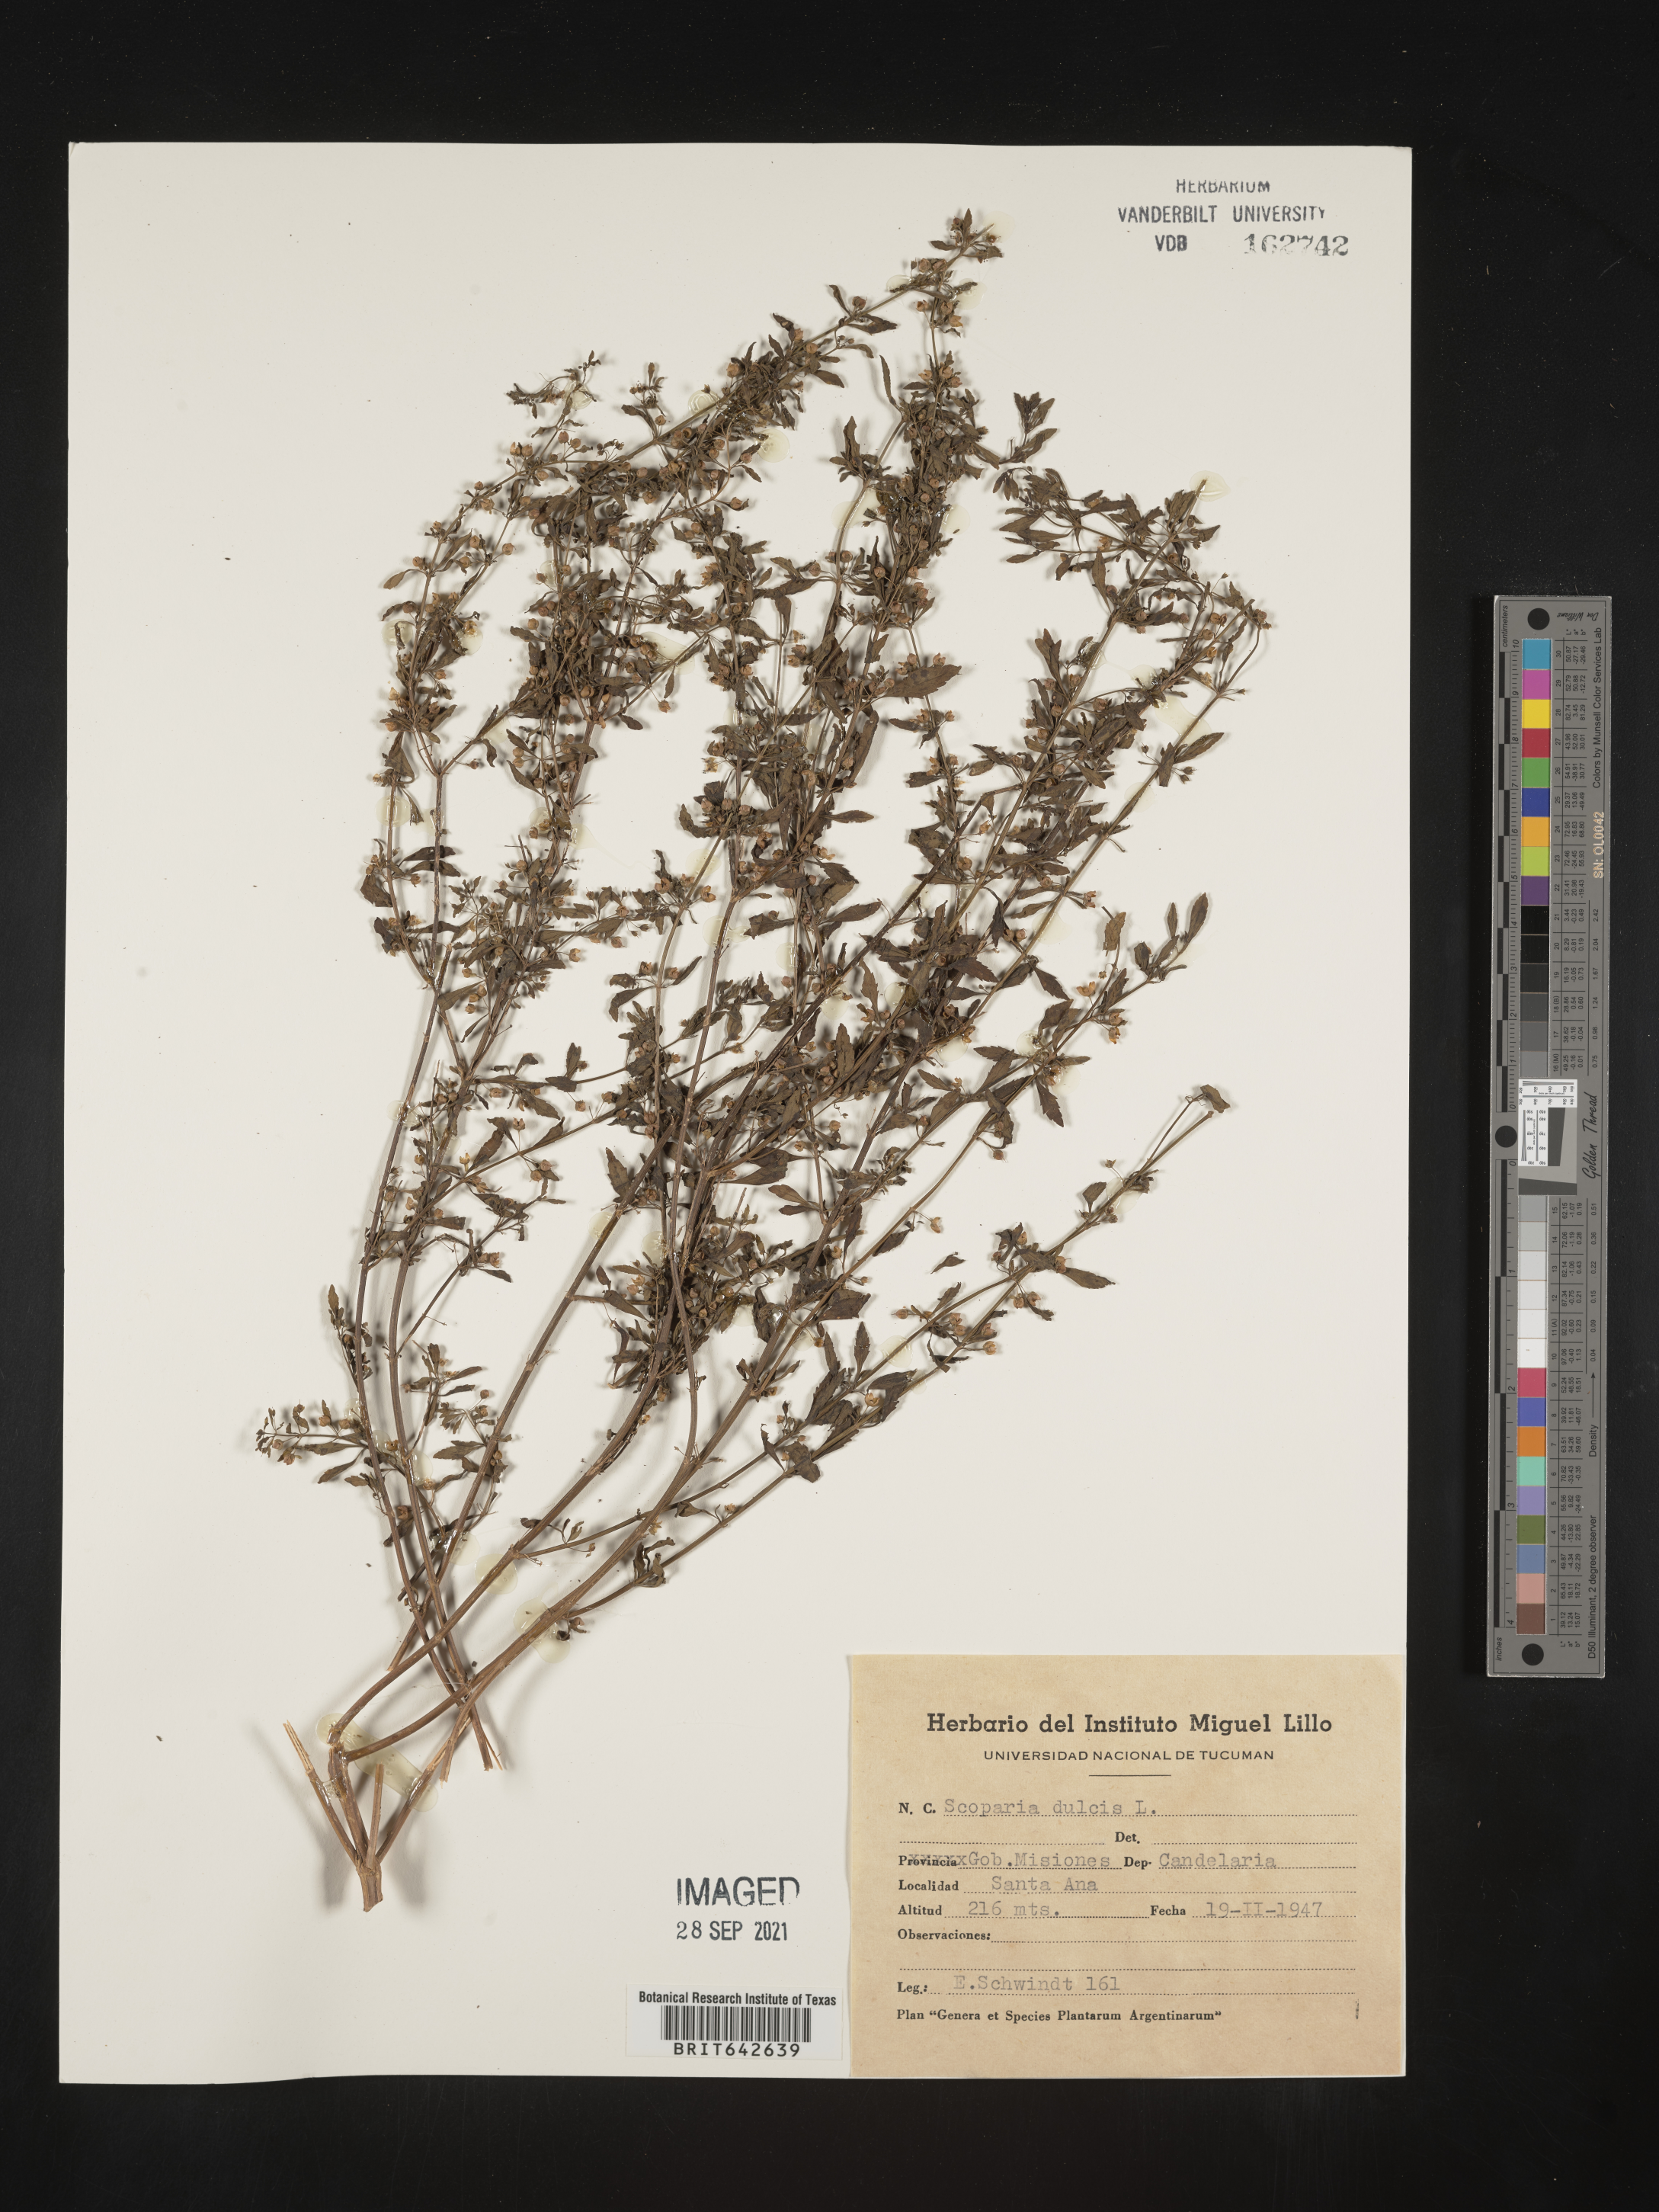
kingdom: Plantae
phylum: Tracheophyta
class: Magnoliopsida
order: Lamiales
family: Plantaginaceae
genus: Scoparia
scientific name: Scoparia
